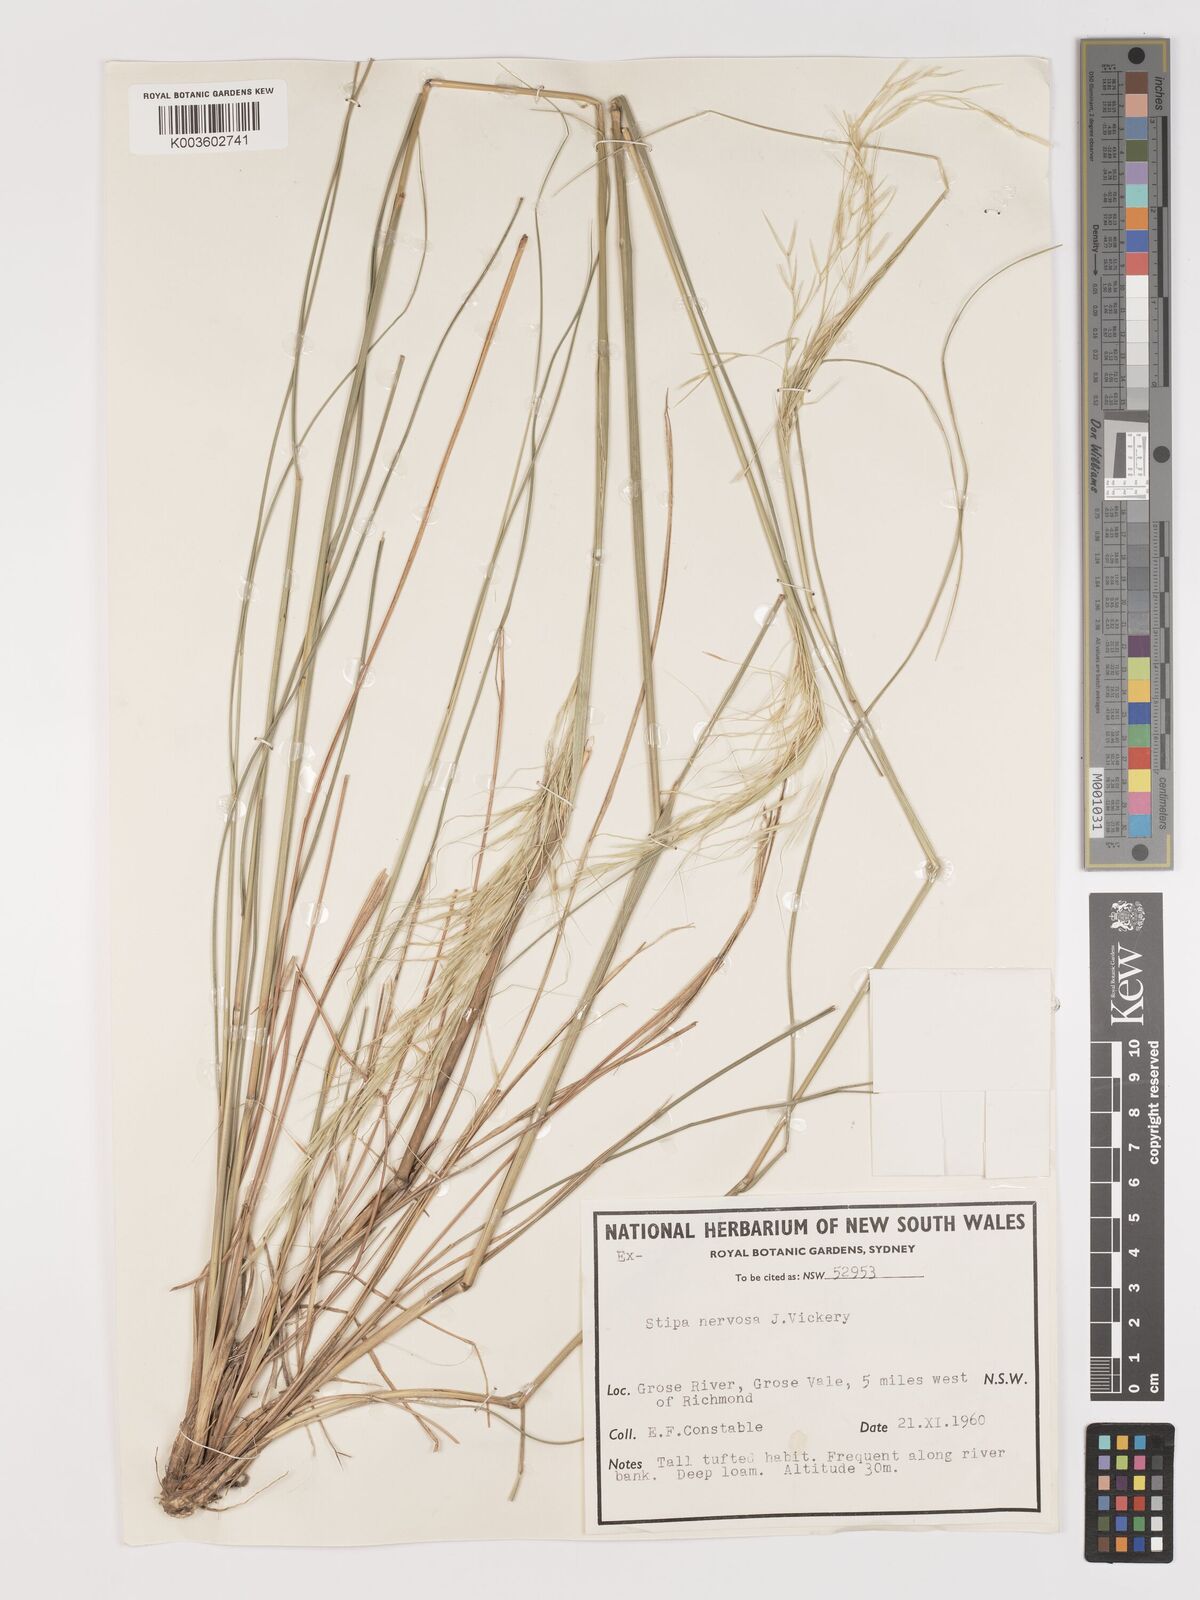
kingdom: Plantae
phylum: Tracheophyta
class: Liliopsida
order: Poales
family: Poaceae
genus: Austrostipa
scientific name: Austrostipa rudis
